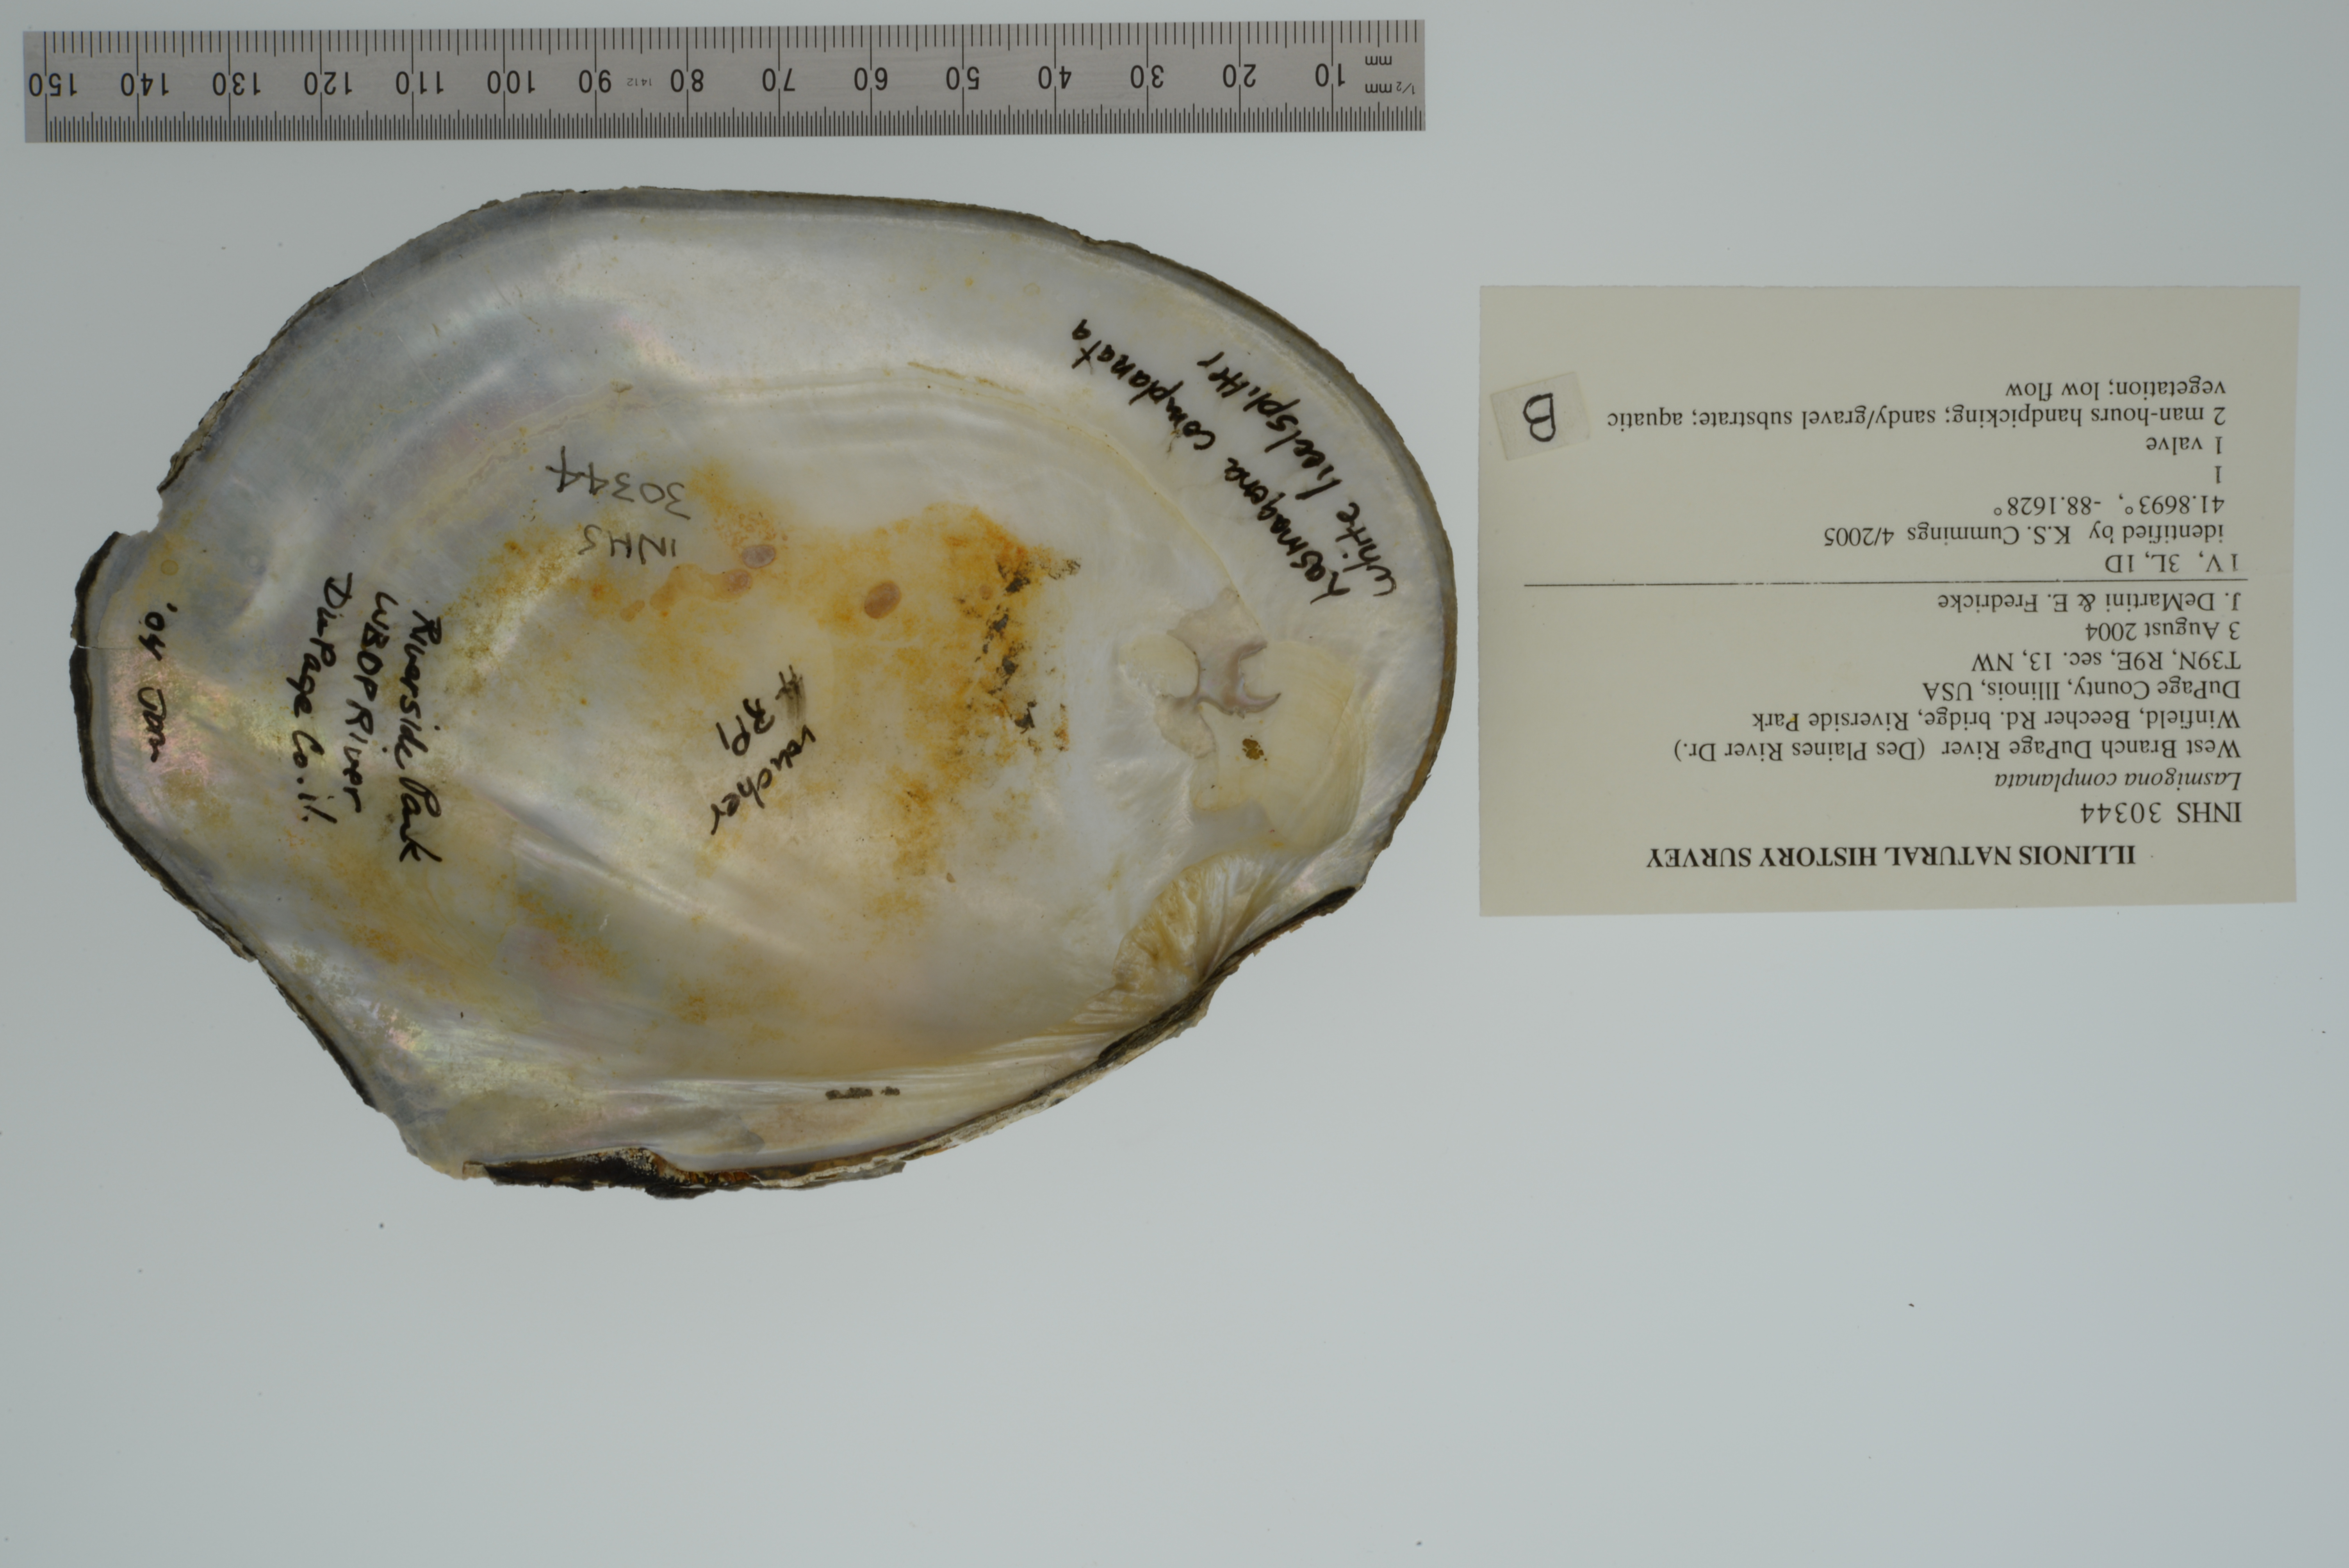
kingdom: Animalia
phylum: Mollusca
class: Bivalvia
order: Unionida
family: Unionidae
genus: Lasmigona
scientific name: Lasmigona complanata
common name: White heelsplitter
